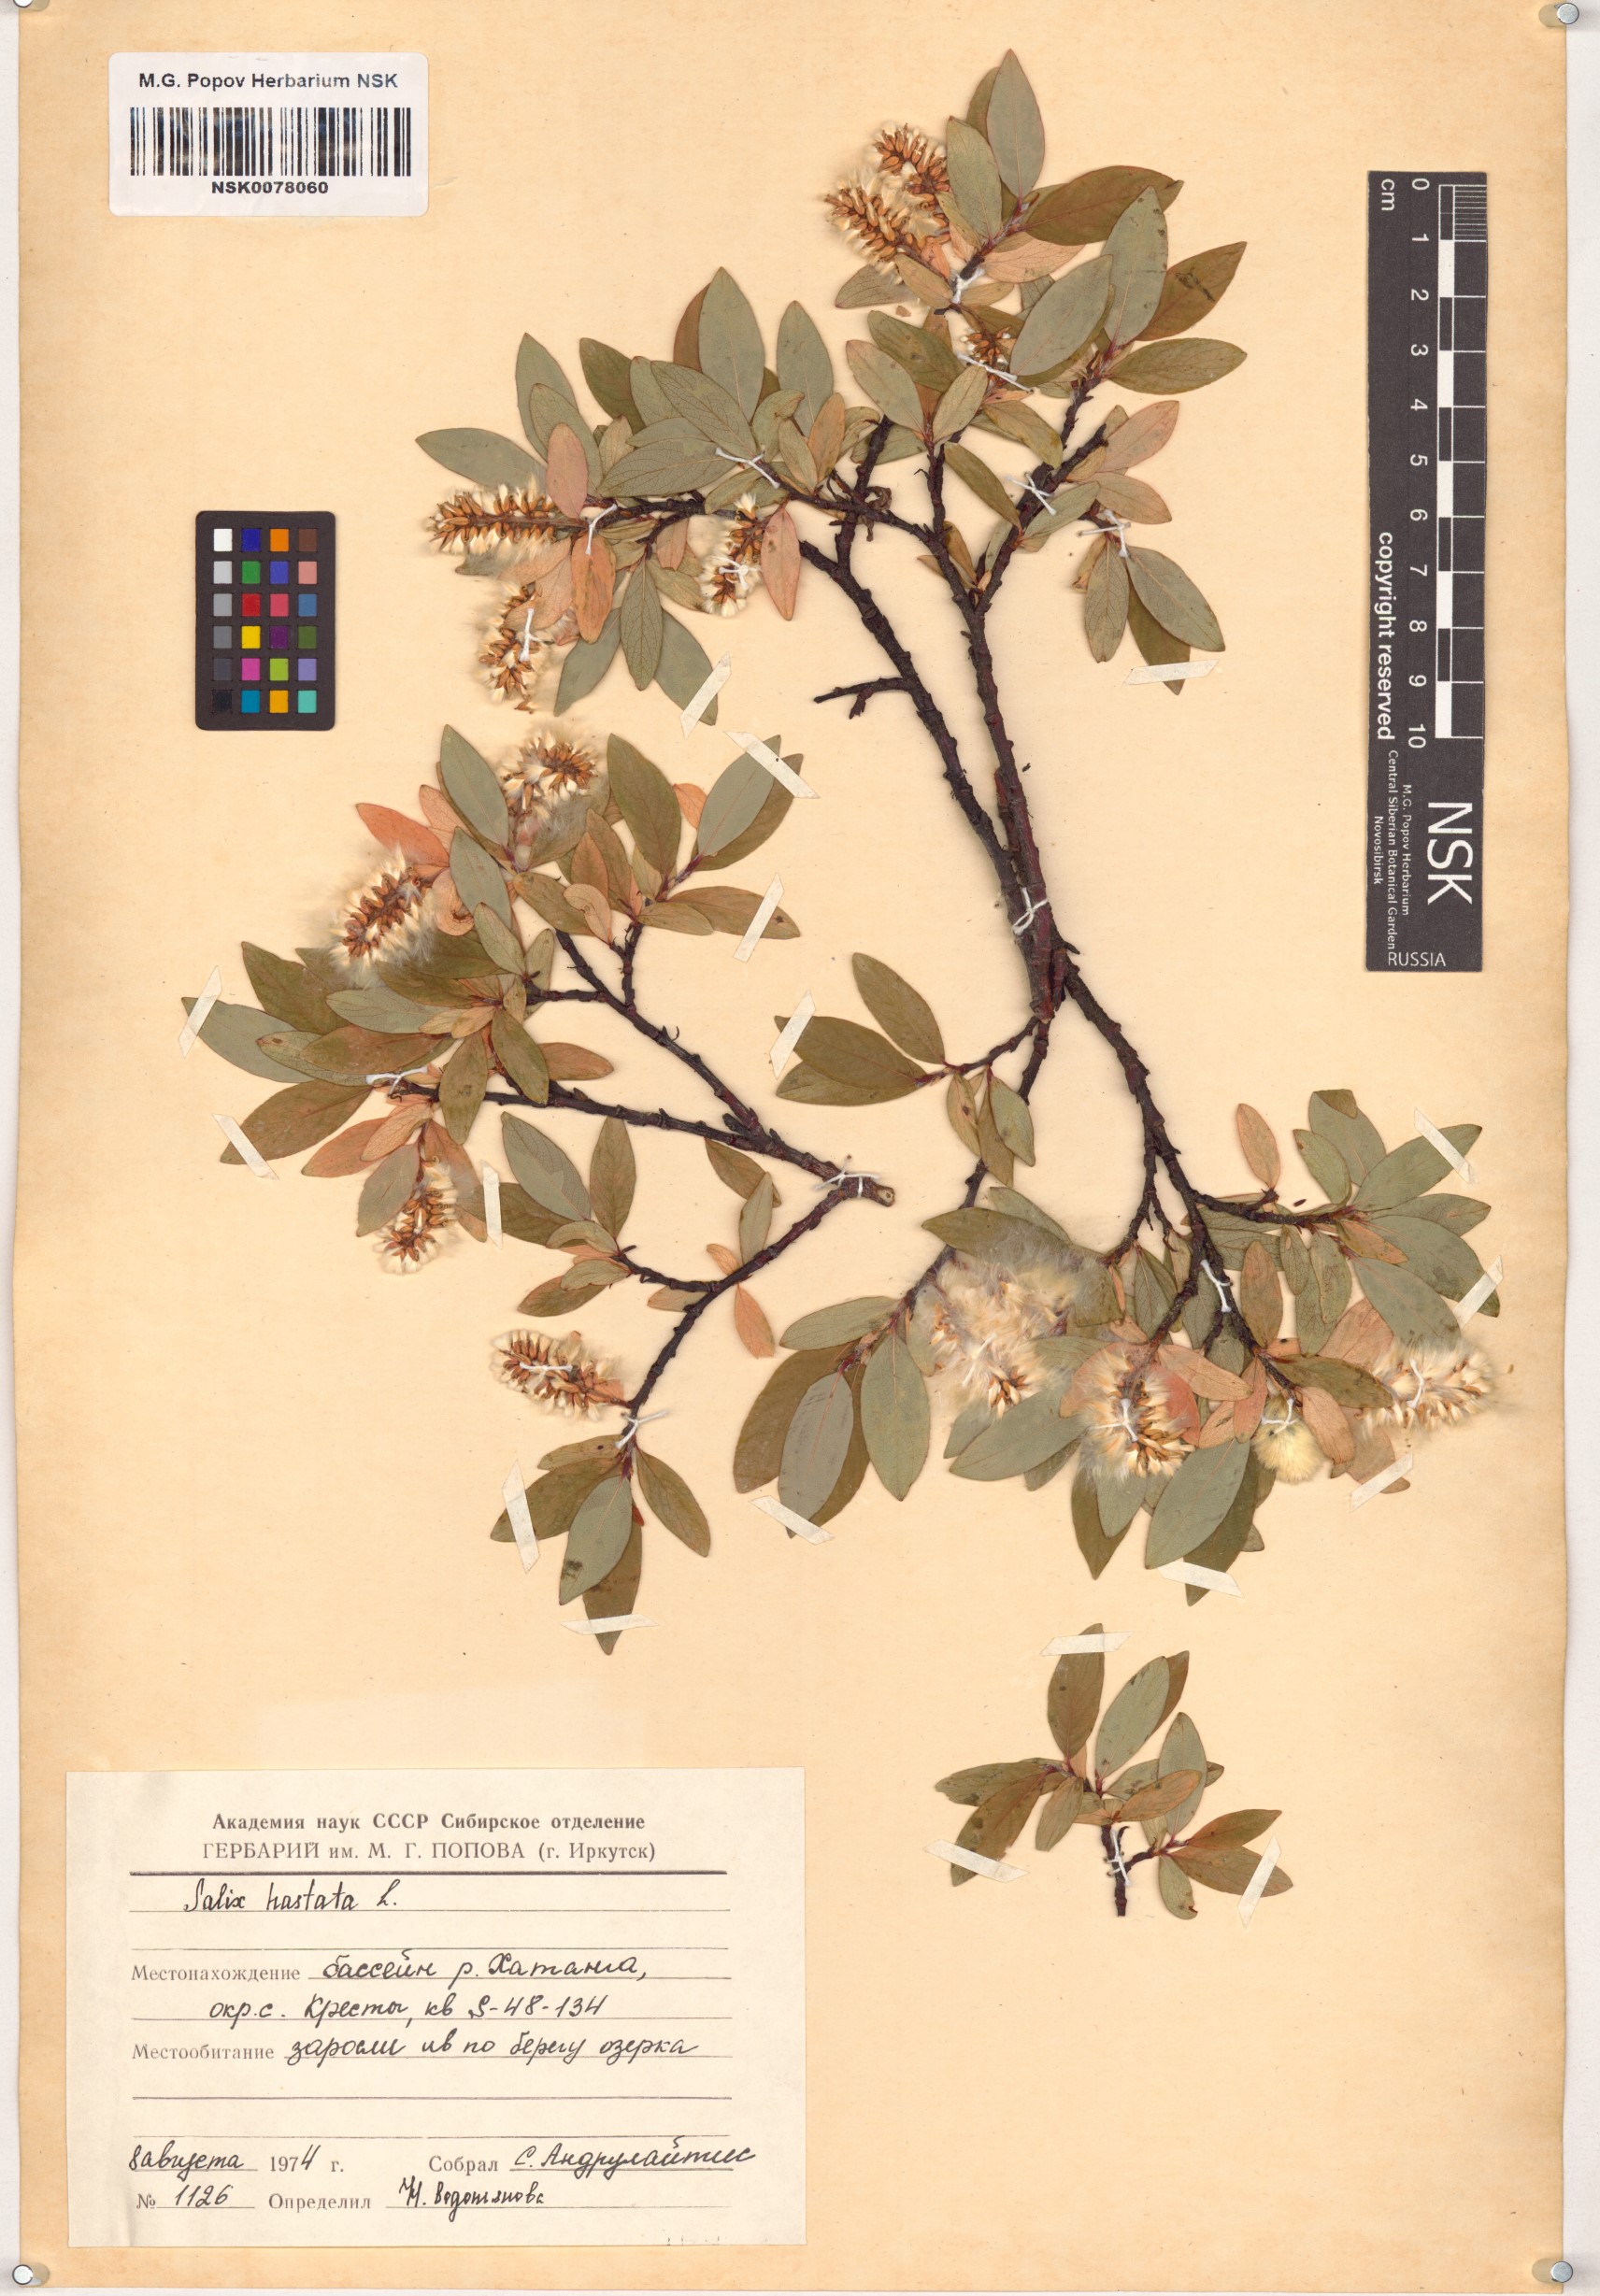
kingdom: Plantae
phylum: Tracheophyta
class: Magnoliopsida
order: Malpighiales
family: Salicaceae
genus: Salix
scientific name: Salix hastata
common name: Halberd willow
